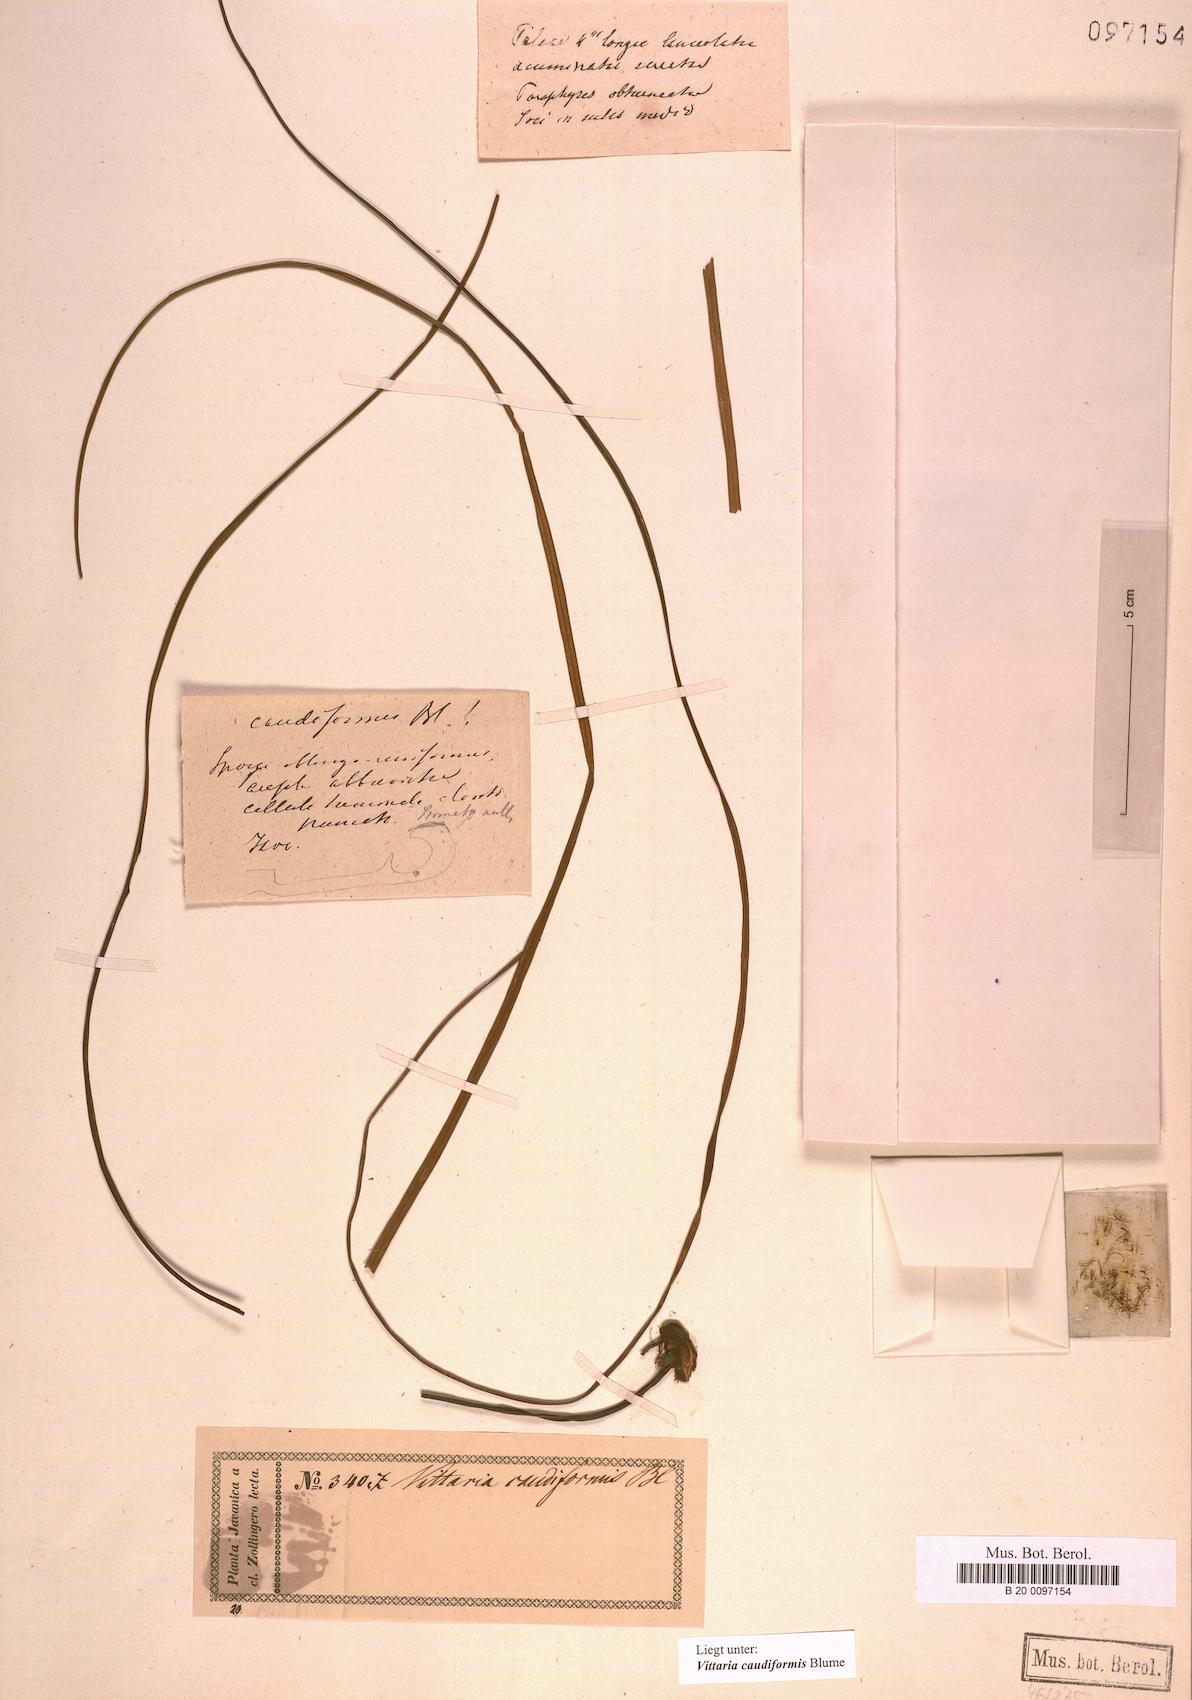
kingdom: Plantae
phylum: Tracheophyta
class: Polypodiopsida
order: Polypodiales
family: Pteridaceae
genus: Vittaria
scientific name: Vittaria caudiformis
